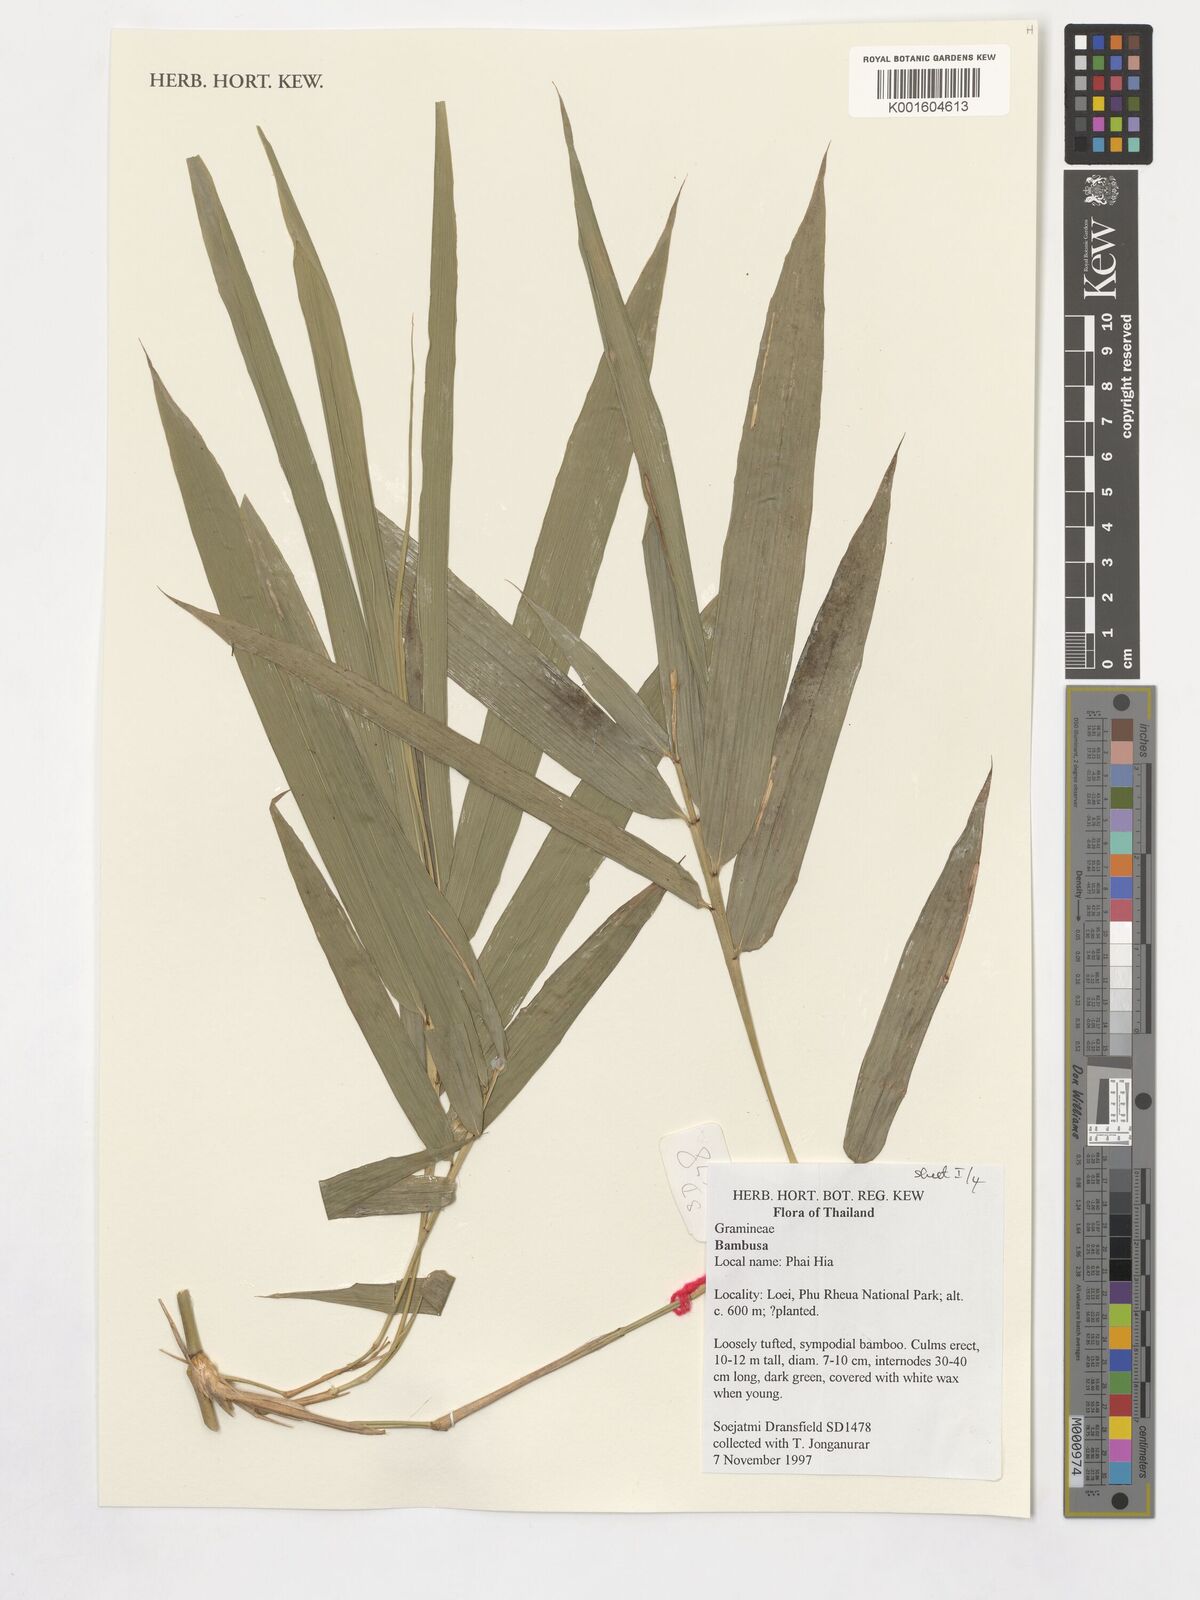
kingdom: Plantae
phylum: Tracheophyta
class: Liliopsida
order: Poales
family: Poaceae
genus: Guadua
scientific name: Guadua
